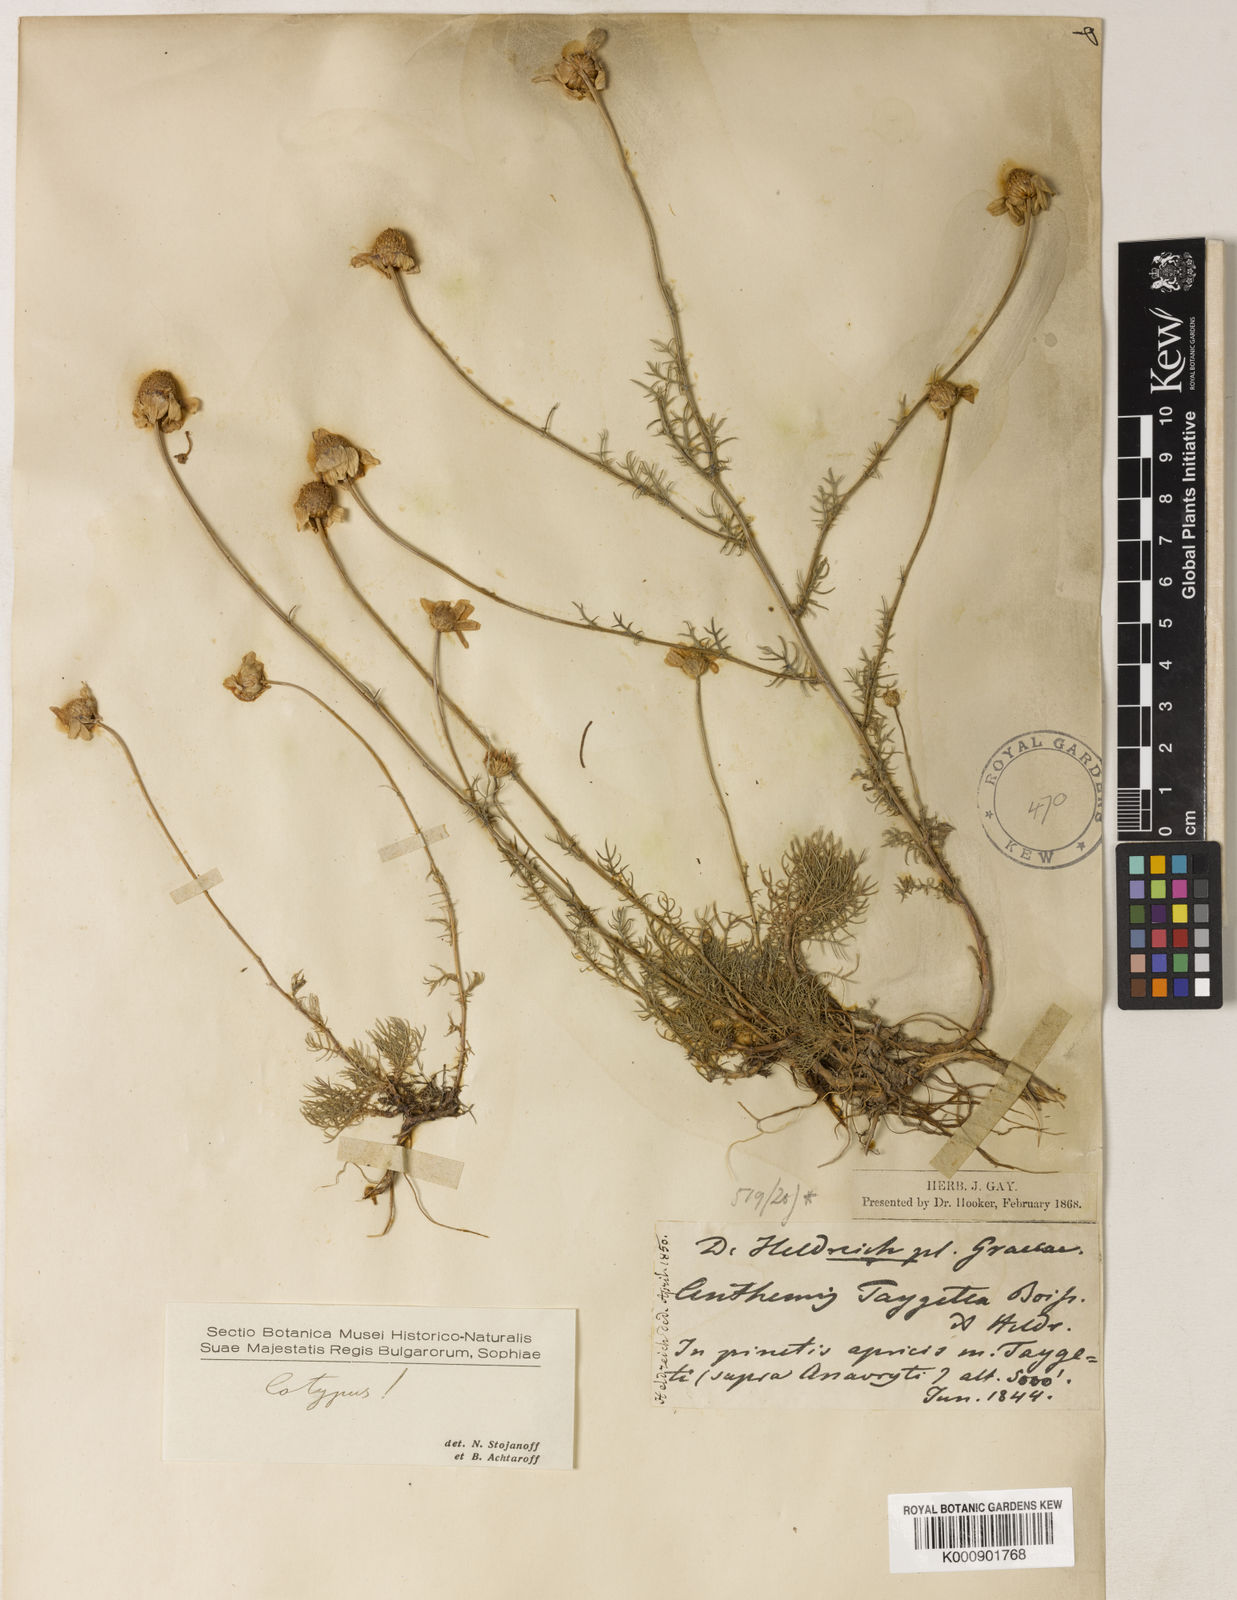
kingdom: Plantae
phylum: Tracheophyta
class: Magnoliopsida
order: Asterales
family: Asteraceae
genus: Anthemis
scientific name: Anthemis orientalis
